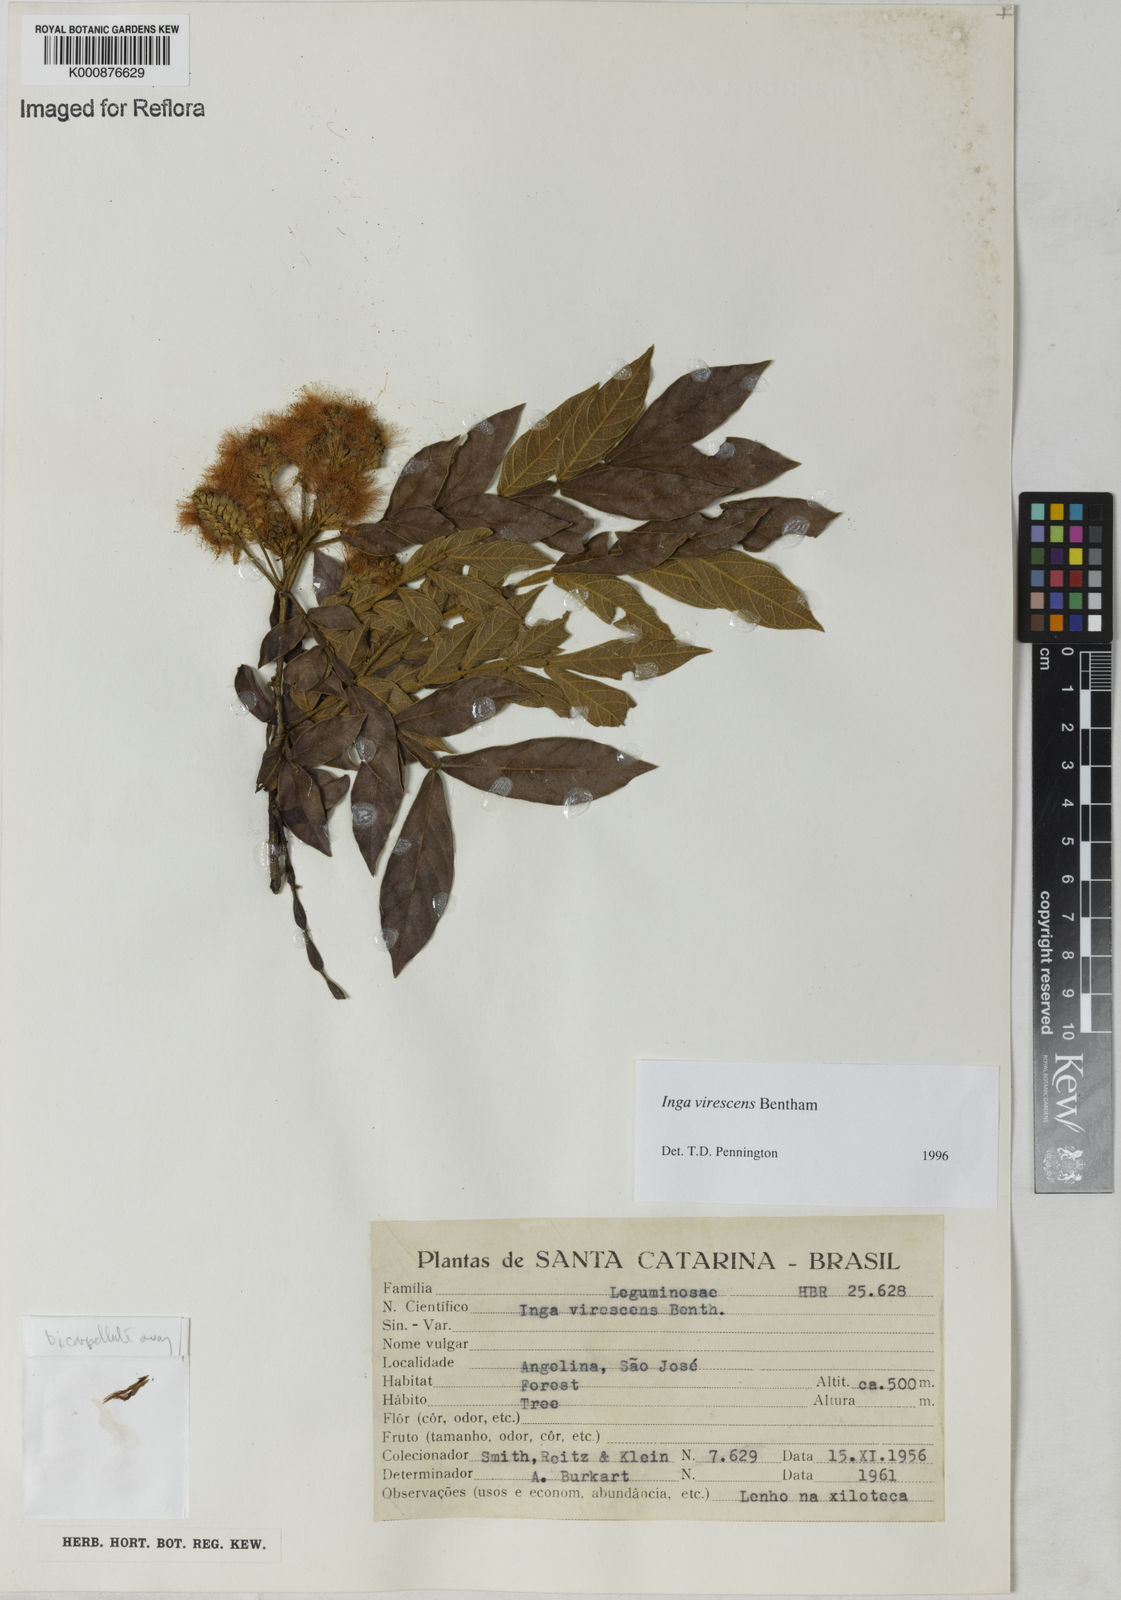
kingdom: Plantae
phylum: Tracheophyta
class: Magnoliopsida
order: Fabales
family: Fabaceae
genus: Inga
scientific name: Inga virescens
